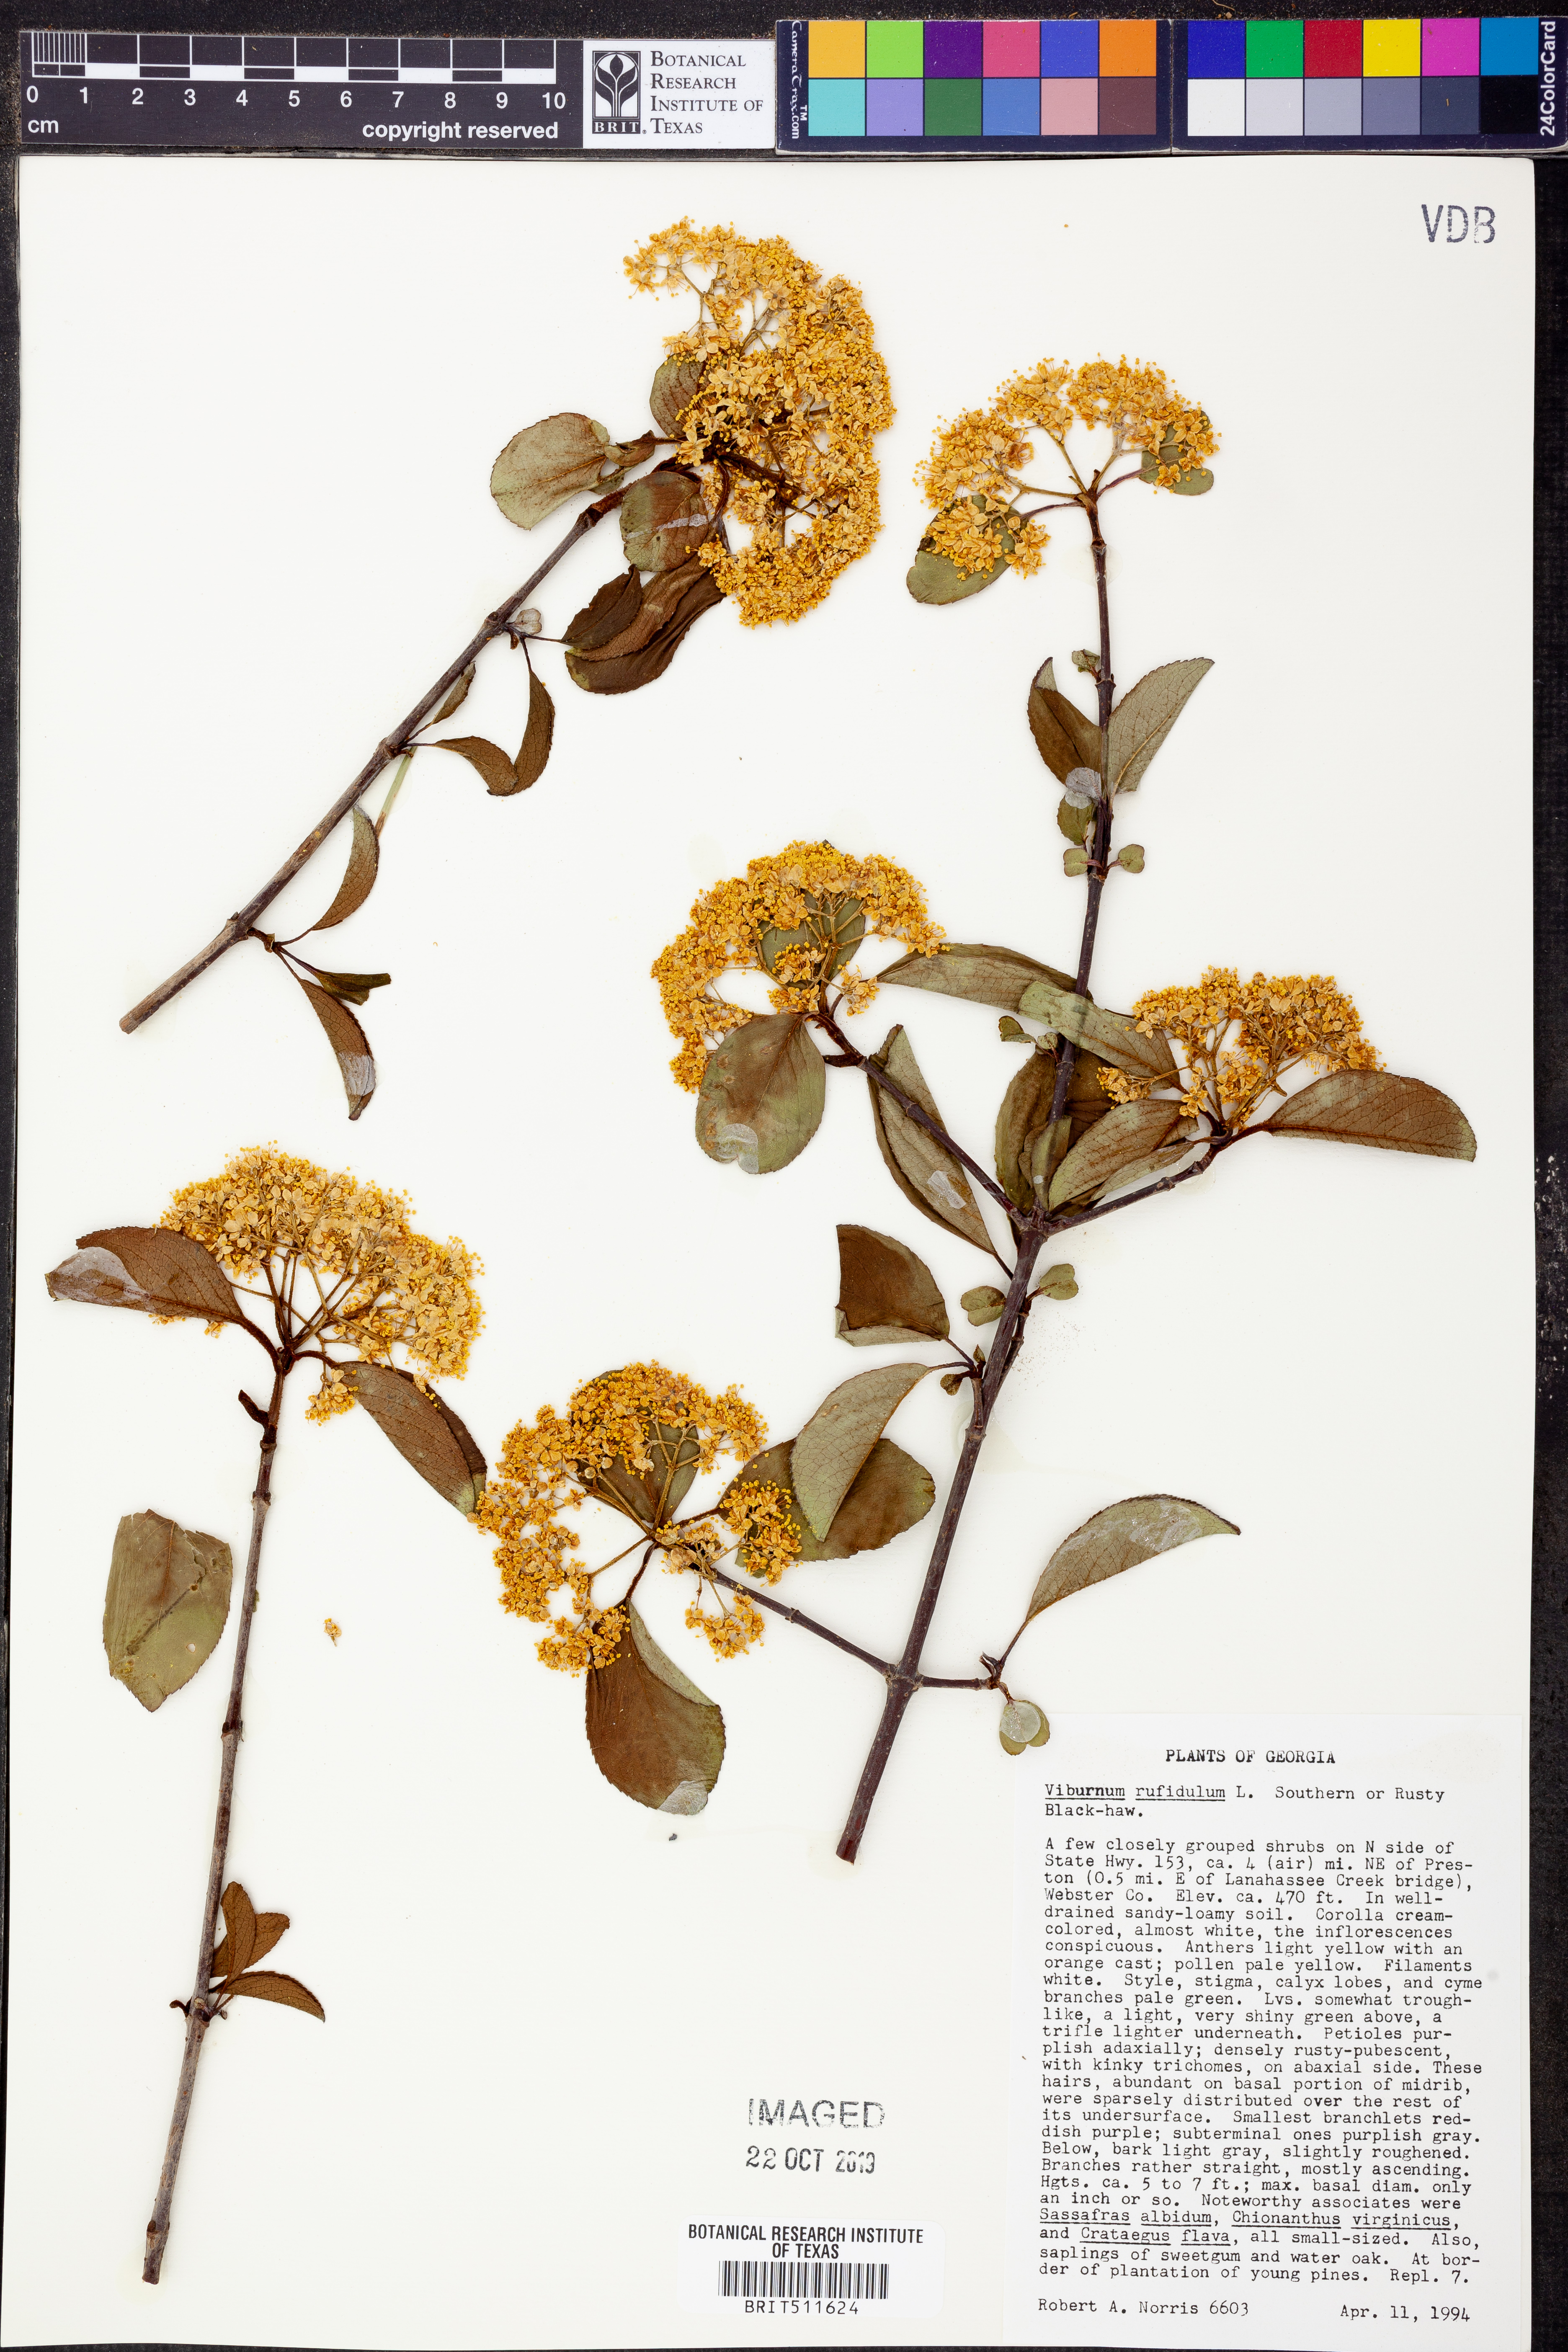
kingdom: Plantae
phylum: Tracheophyta
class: Magnoliopsida
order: Dipsacales
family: Viburnaceae
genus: Viburnum
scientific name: Viburnum rufidulum
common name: Blue haw
